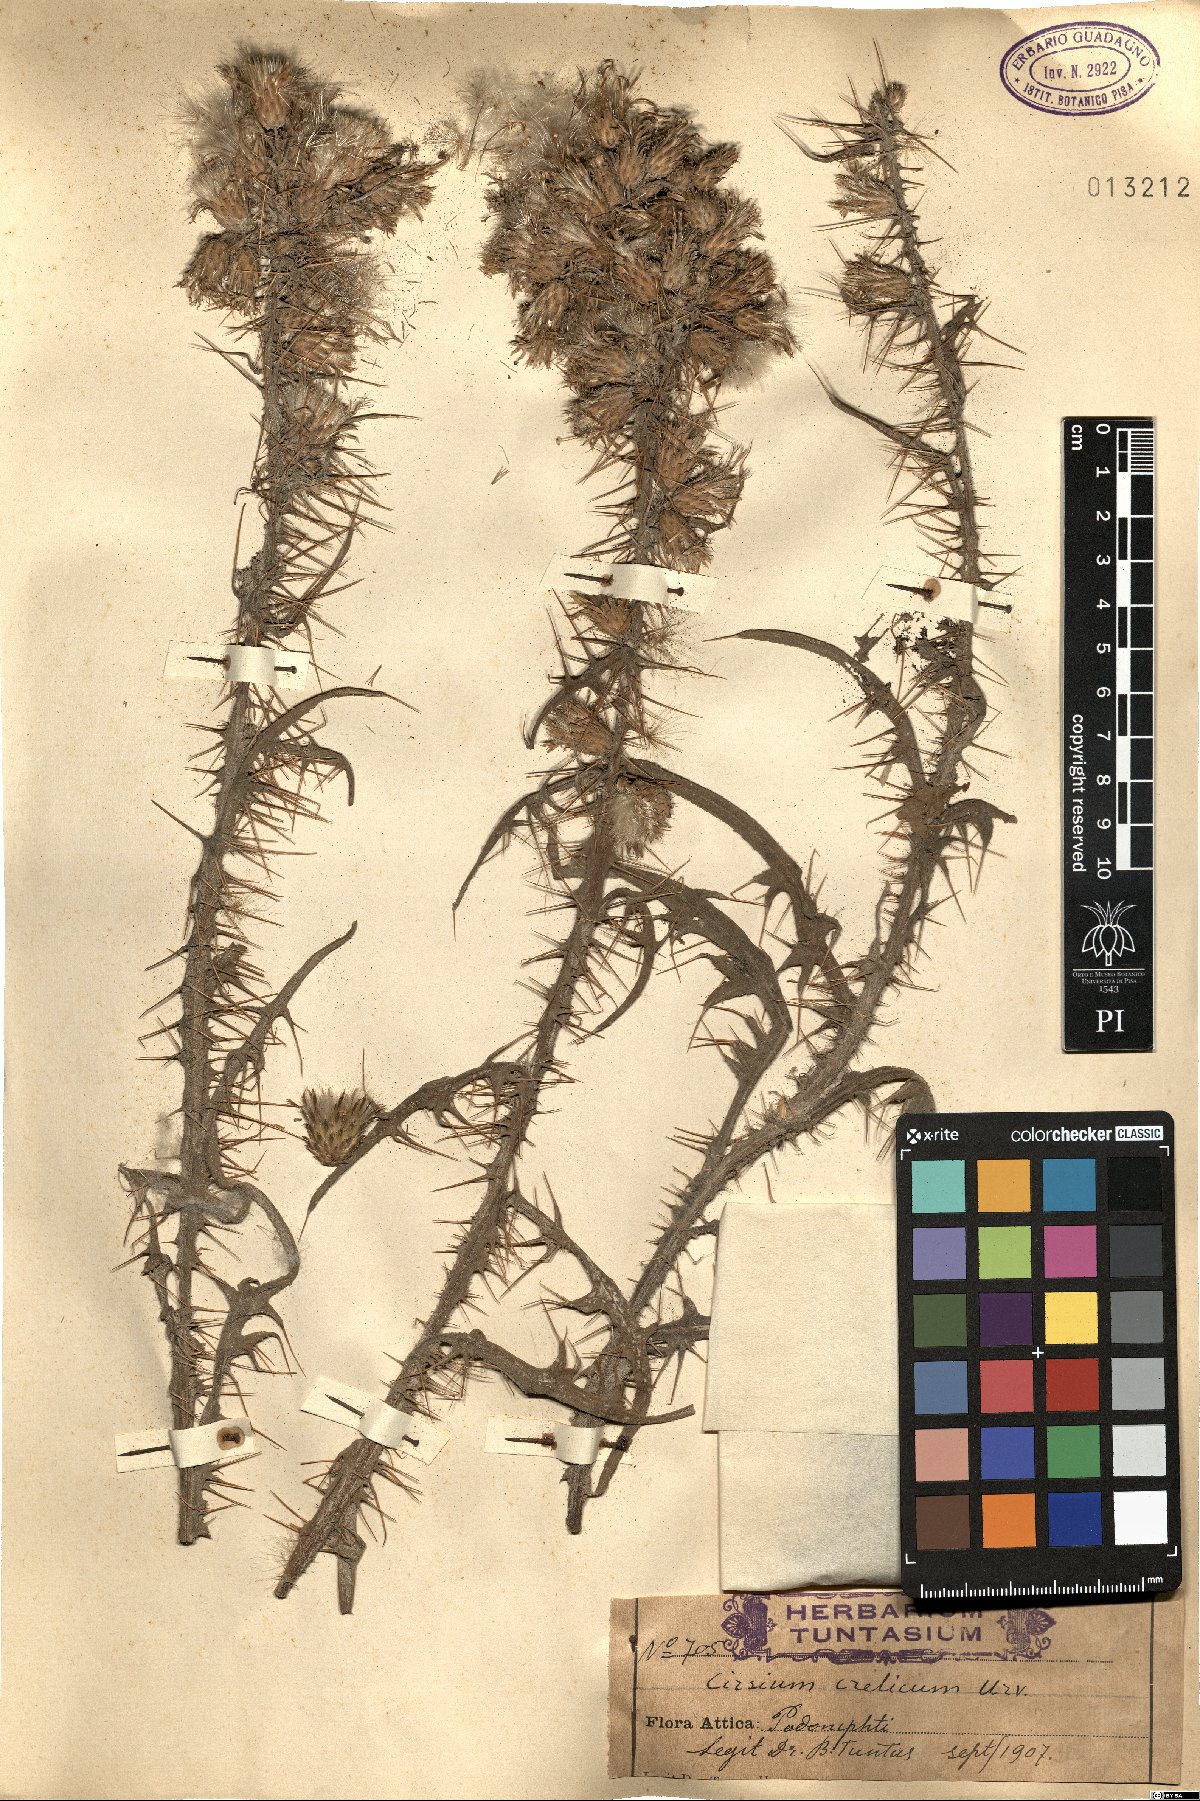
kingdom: Plantae
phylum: Tracheophyta
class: Magnoliopsida
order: Asterales
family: Asteraceae
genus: Cirsium
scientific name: Cirsium creticum
